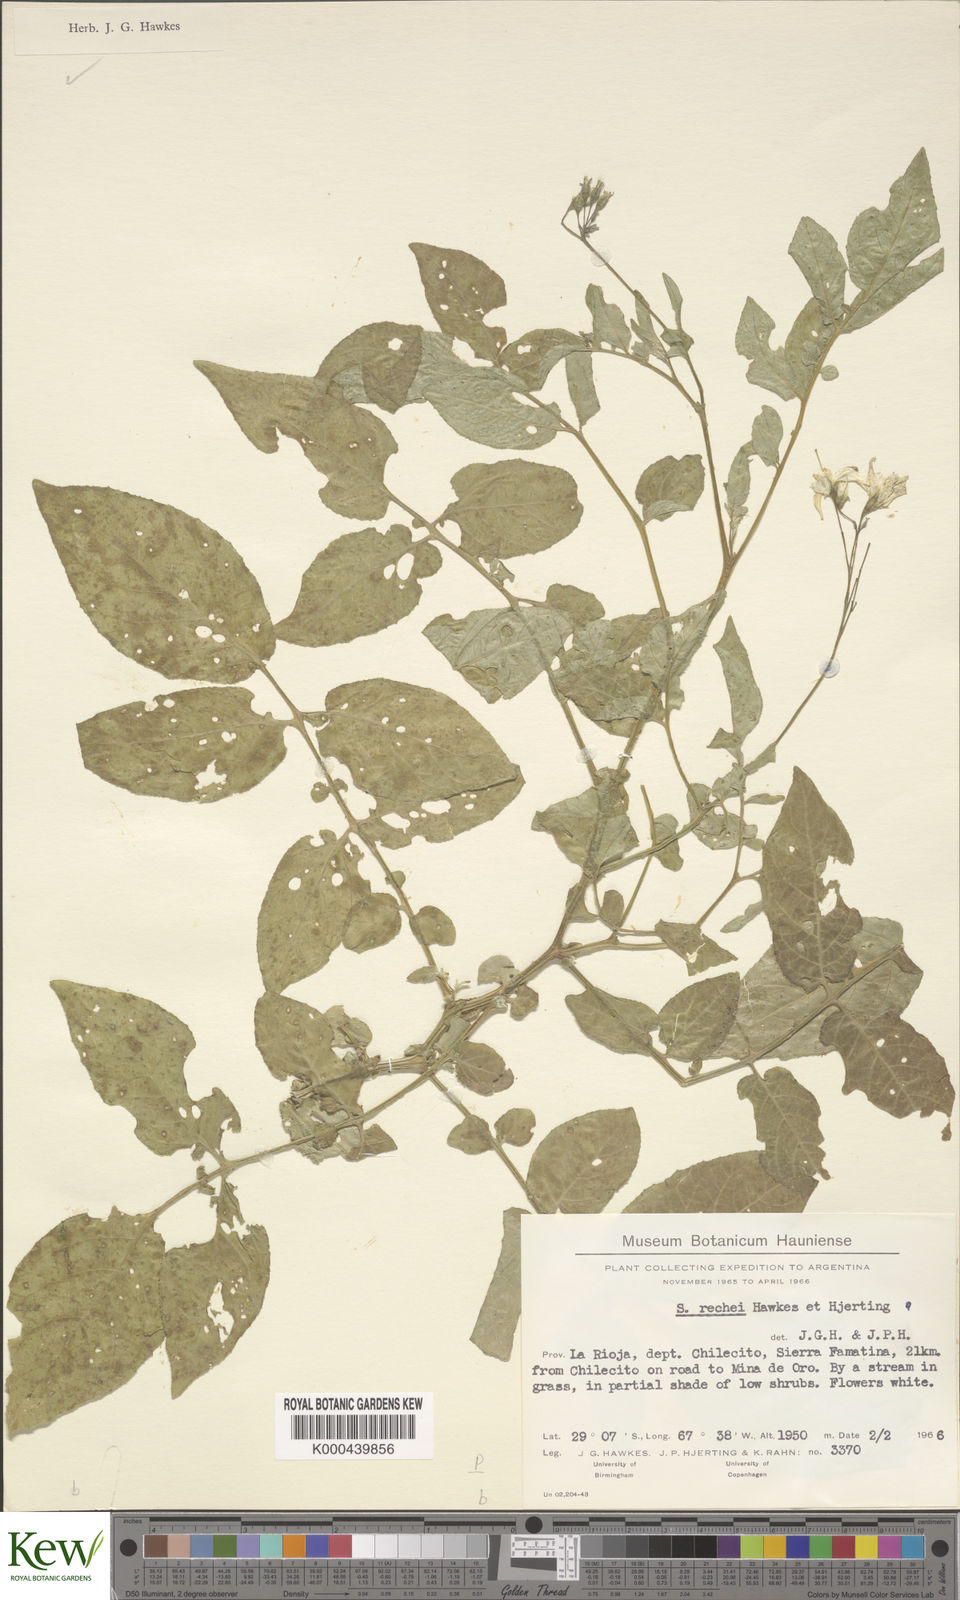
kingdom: Plantae
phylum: Tracheophyta
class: Magnoliopsida
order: Solanales
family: Solanaceae
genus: Solanum
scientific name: Solanum rechei
